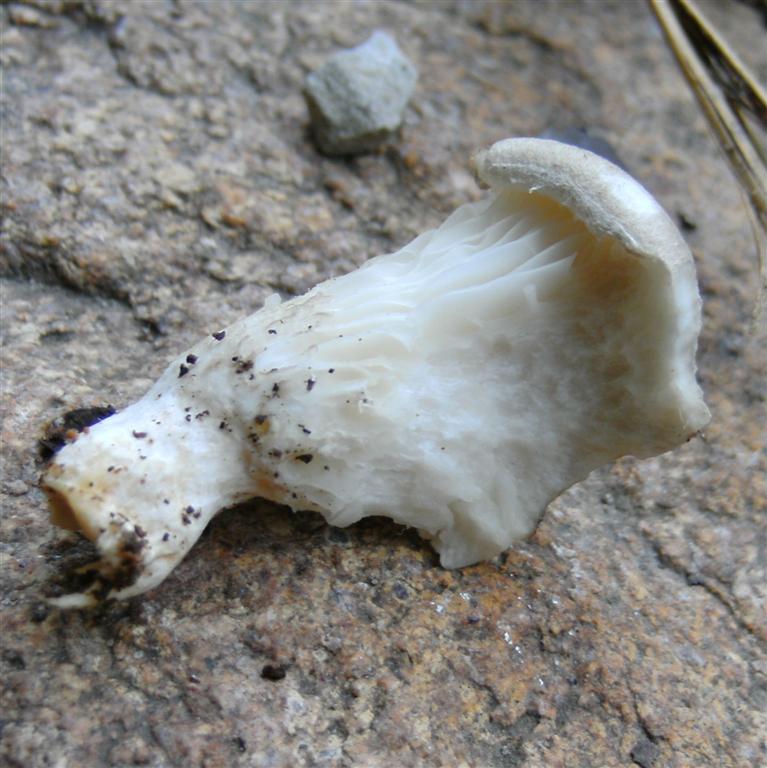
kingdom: Fungi
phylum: Basidiomycota
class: Agaricomycetes
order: Agaricales
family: Pleurotaceae
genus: Pleurotus
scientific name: Pleurotus dryinus
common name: korkagtig østershat
